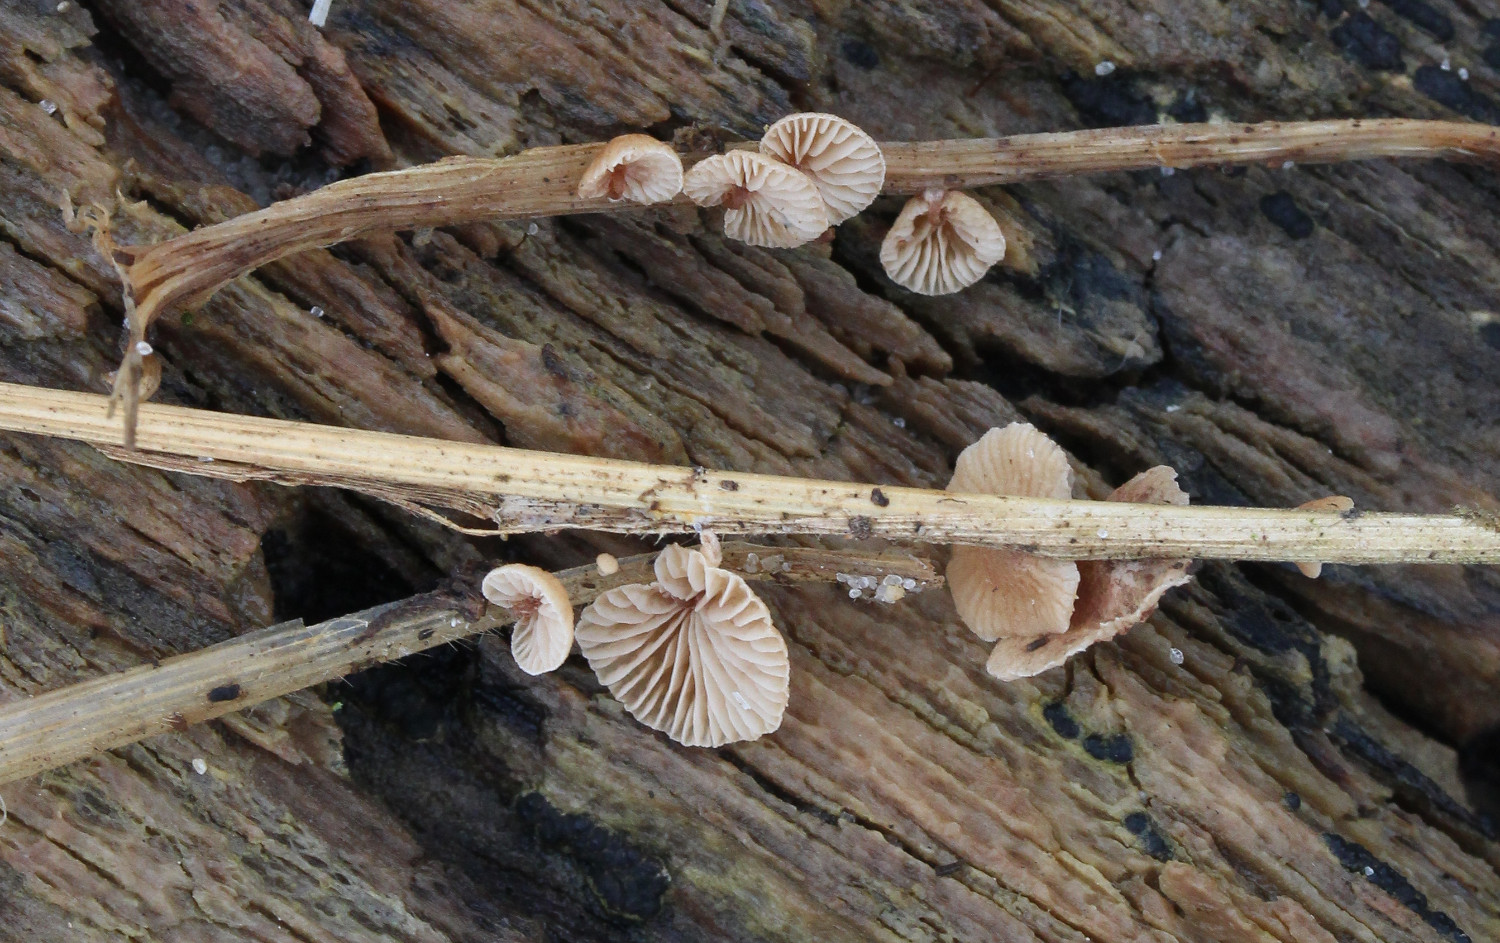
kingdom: Fungi
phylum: Basidiomycota
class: Agaricomycetes
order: Agaricales
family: Strophariaceae
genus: Deconica
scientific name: Deconica phillipsii
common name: almindelig stråhat
